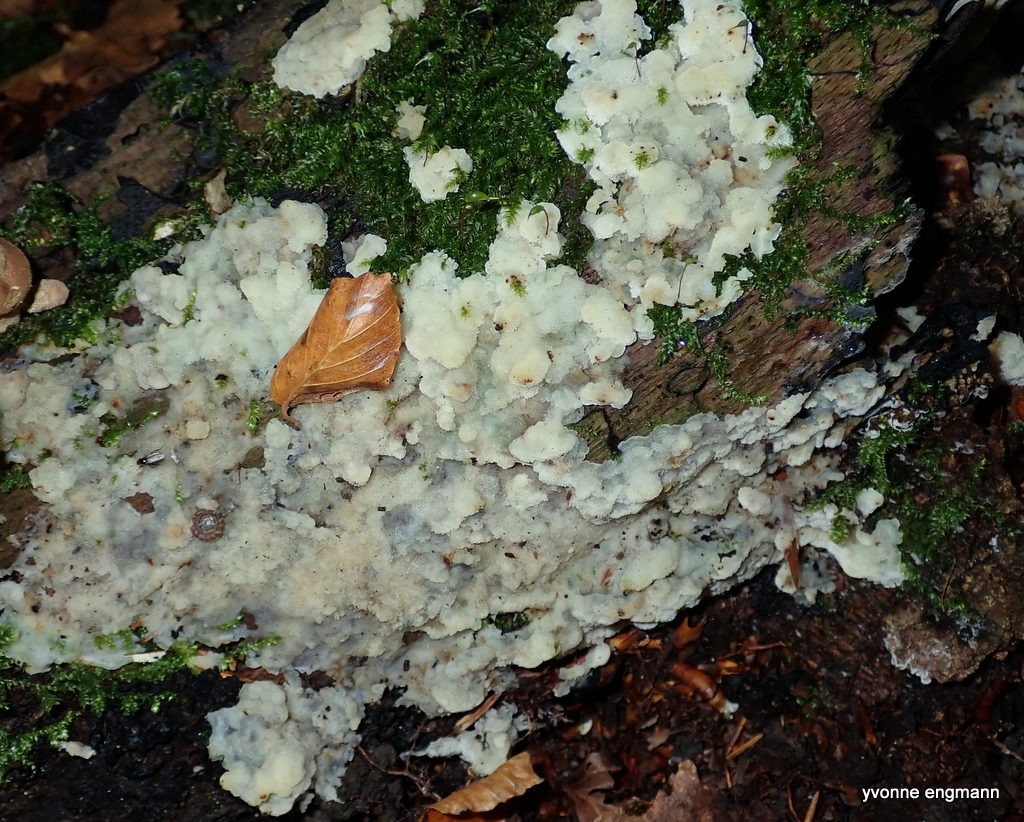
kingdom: Fungi
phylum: Basidiomycota
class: Agaricomycetes
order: Polyporales
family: Meruliaceae
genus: Physisporinus
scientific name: Physisporinus vitreus
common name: mastesvamp
